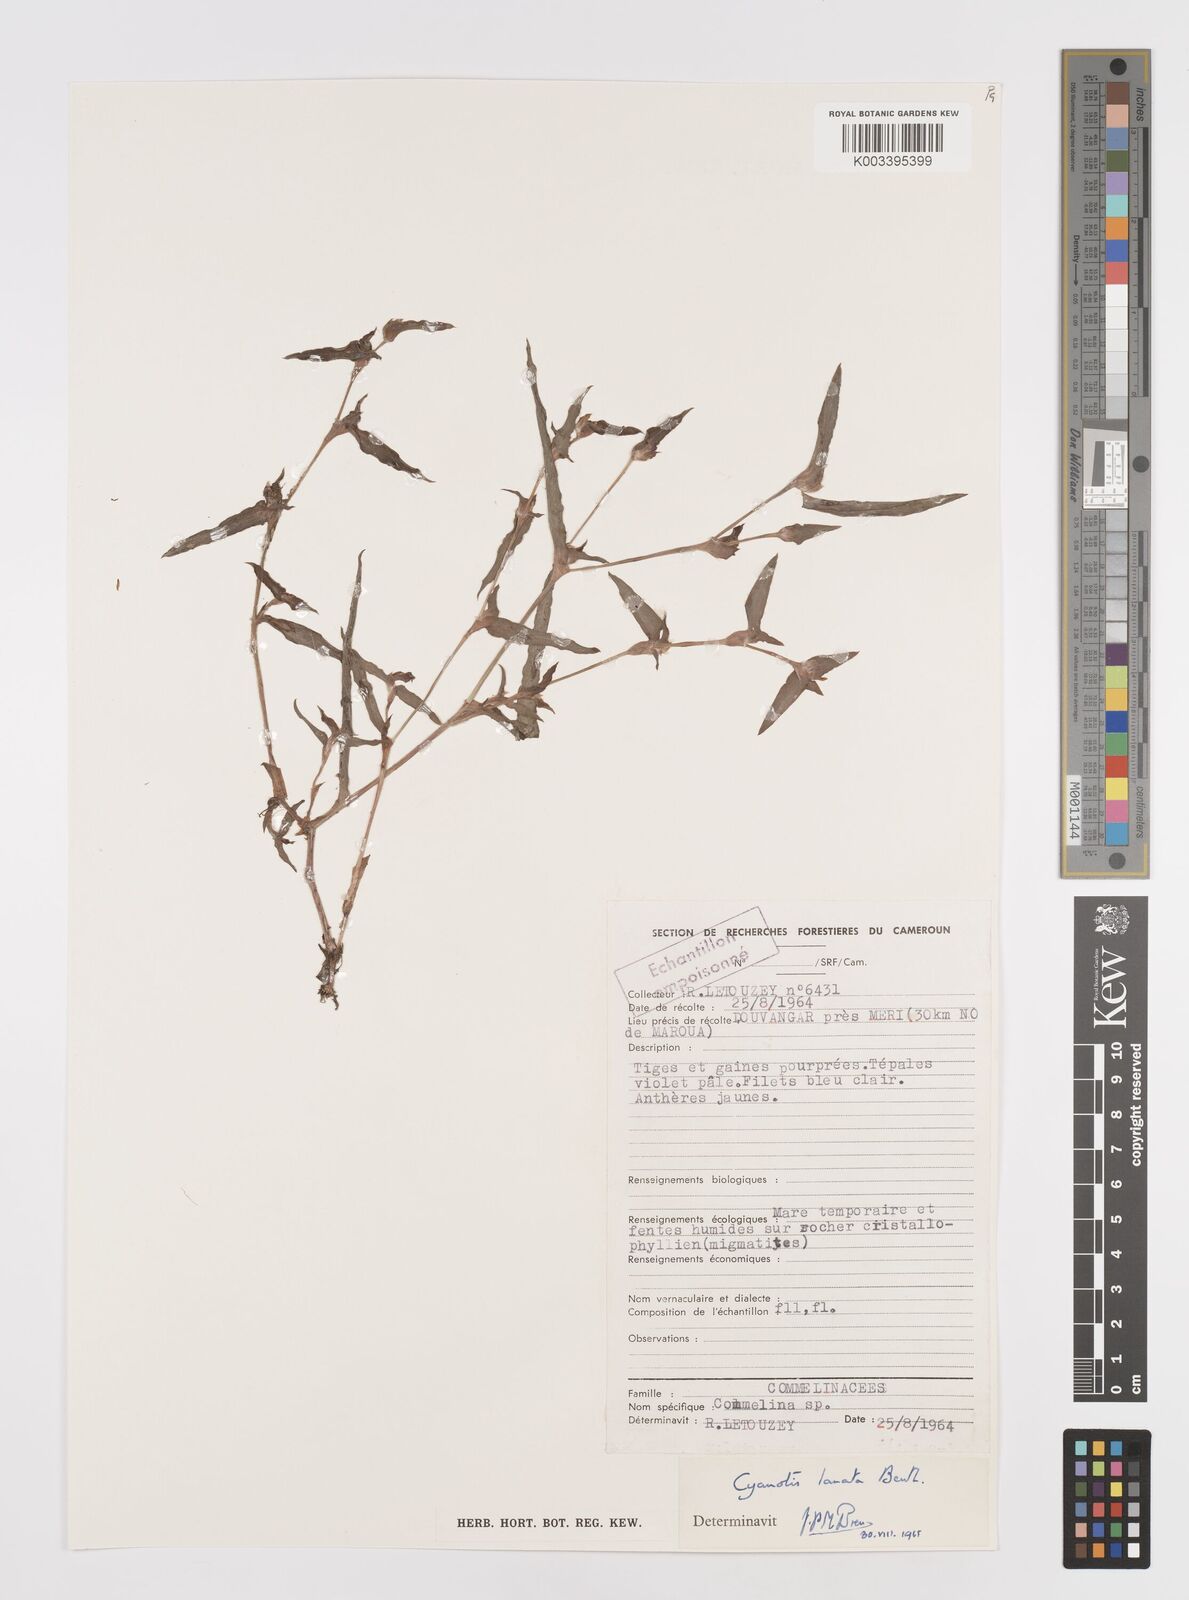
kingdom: Plantae
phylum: Tracheophyta
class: Liliopsida
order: Commelinales
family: Commelinaceae
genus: Cyanotis
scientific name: Cyanotis lanata
